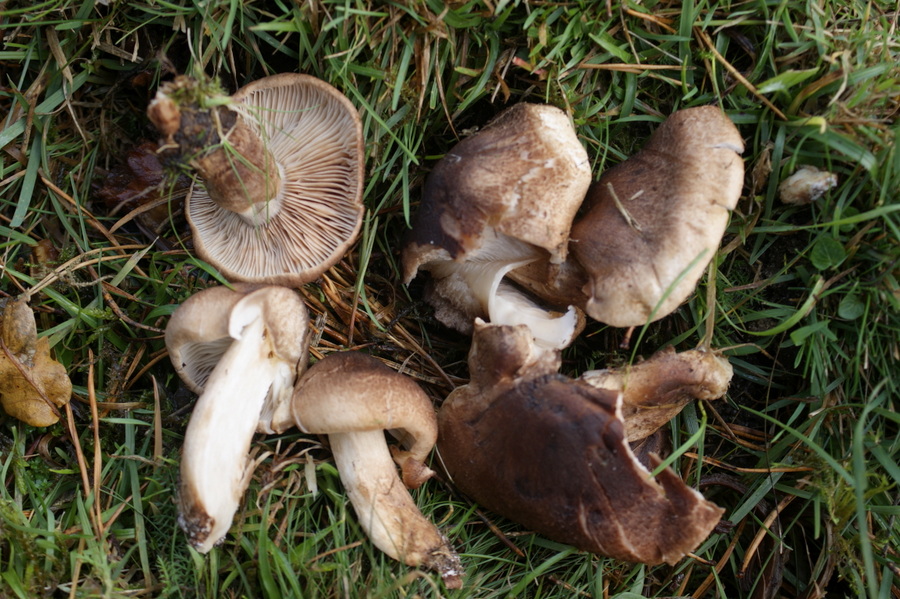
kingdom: Fungi
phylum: Basidiomycota
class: Agaricomycetes
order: Agaricales
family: Tricholomataceae
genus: Tricholoma
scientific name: Tricholoma imbricatum
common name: skællet ridderhat
